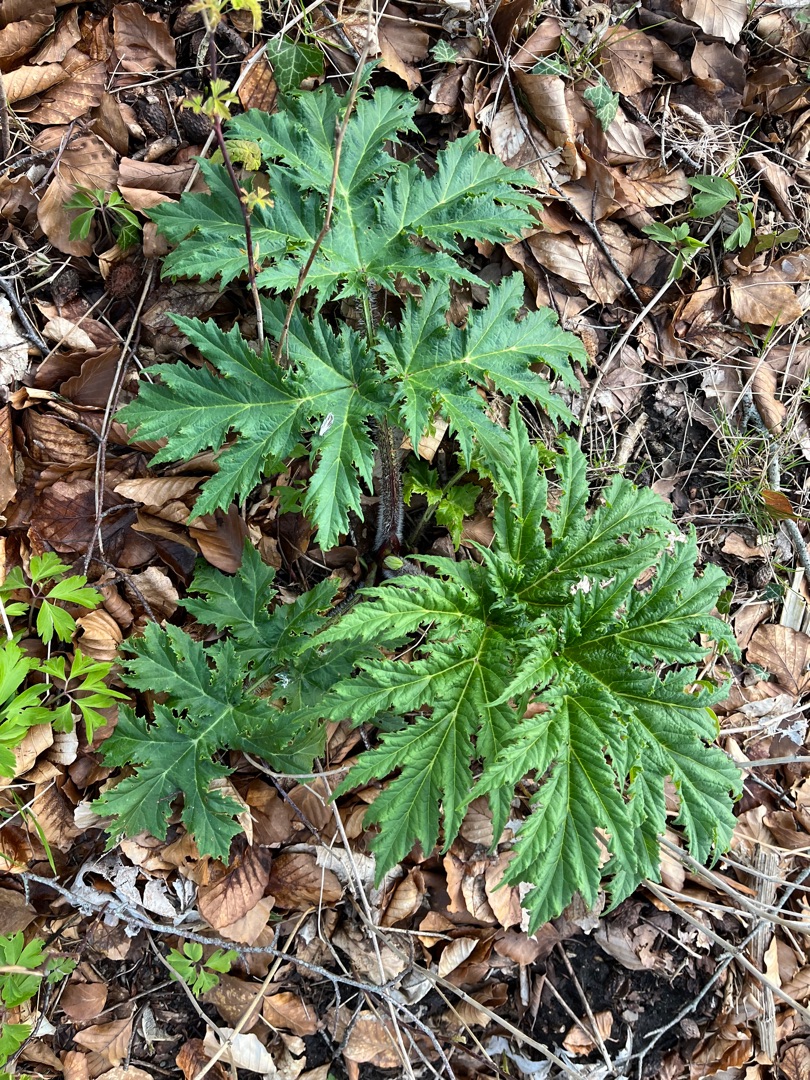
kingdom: Plantae
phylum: Tracheophyta
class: Magnoliopsida
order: Apiales
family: Apiaceae
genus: Heracleum
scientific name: Heracleum mantegazzianum
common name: Kæmpe-bjørneklo
